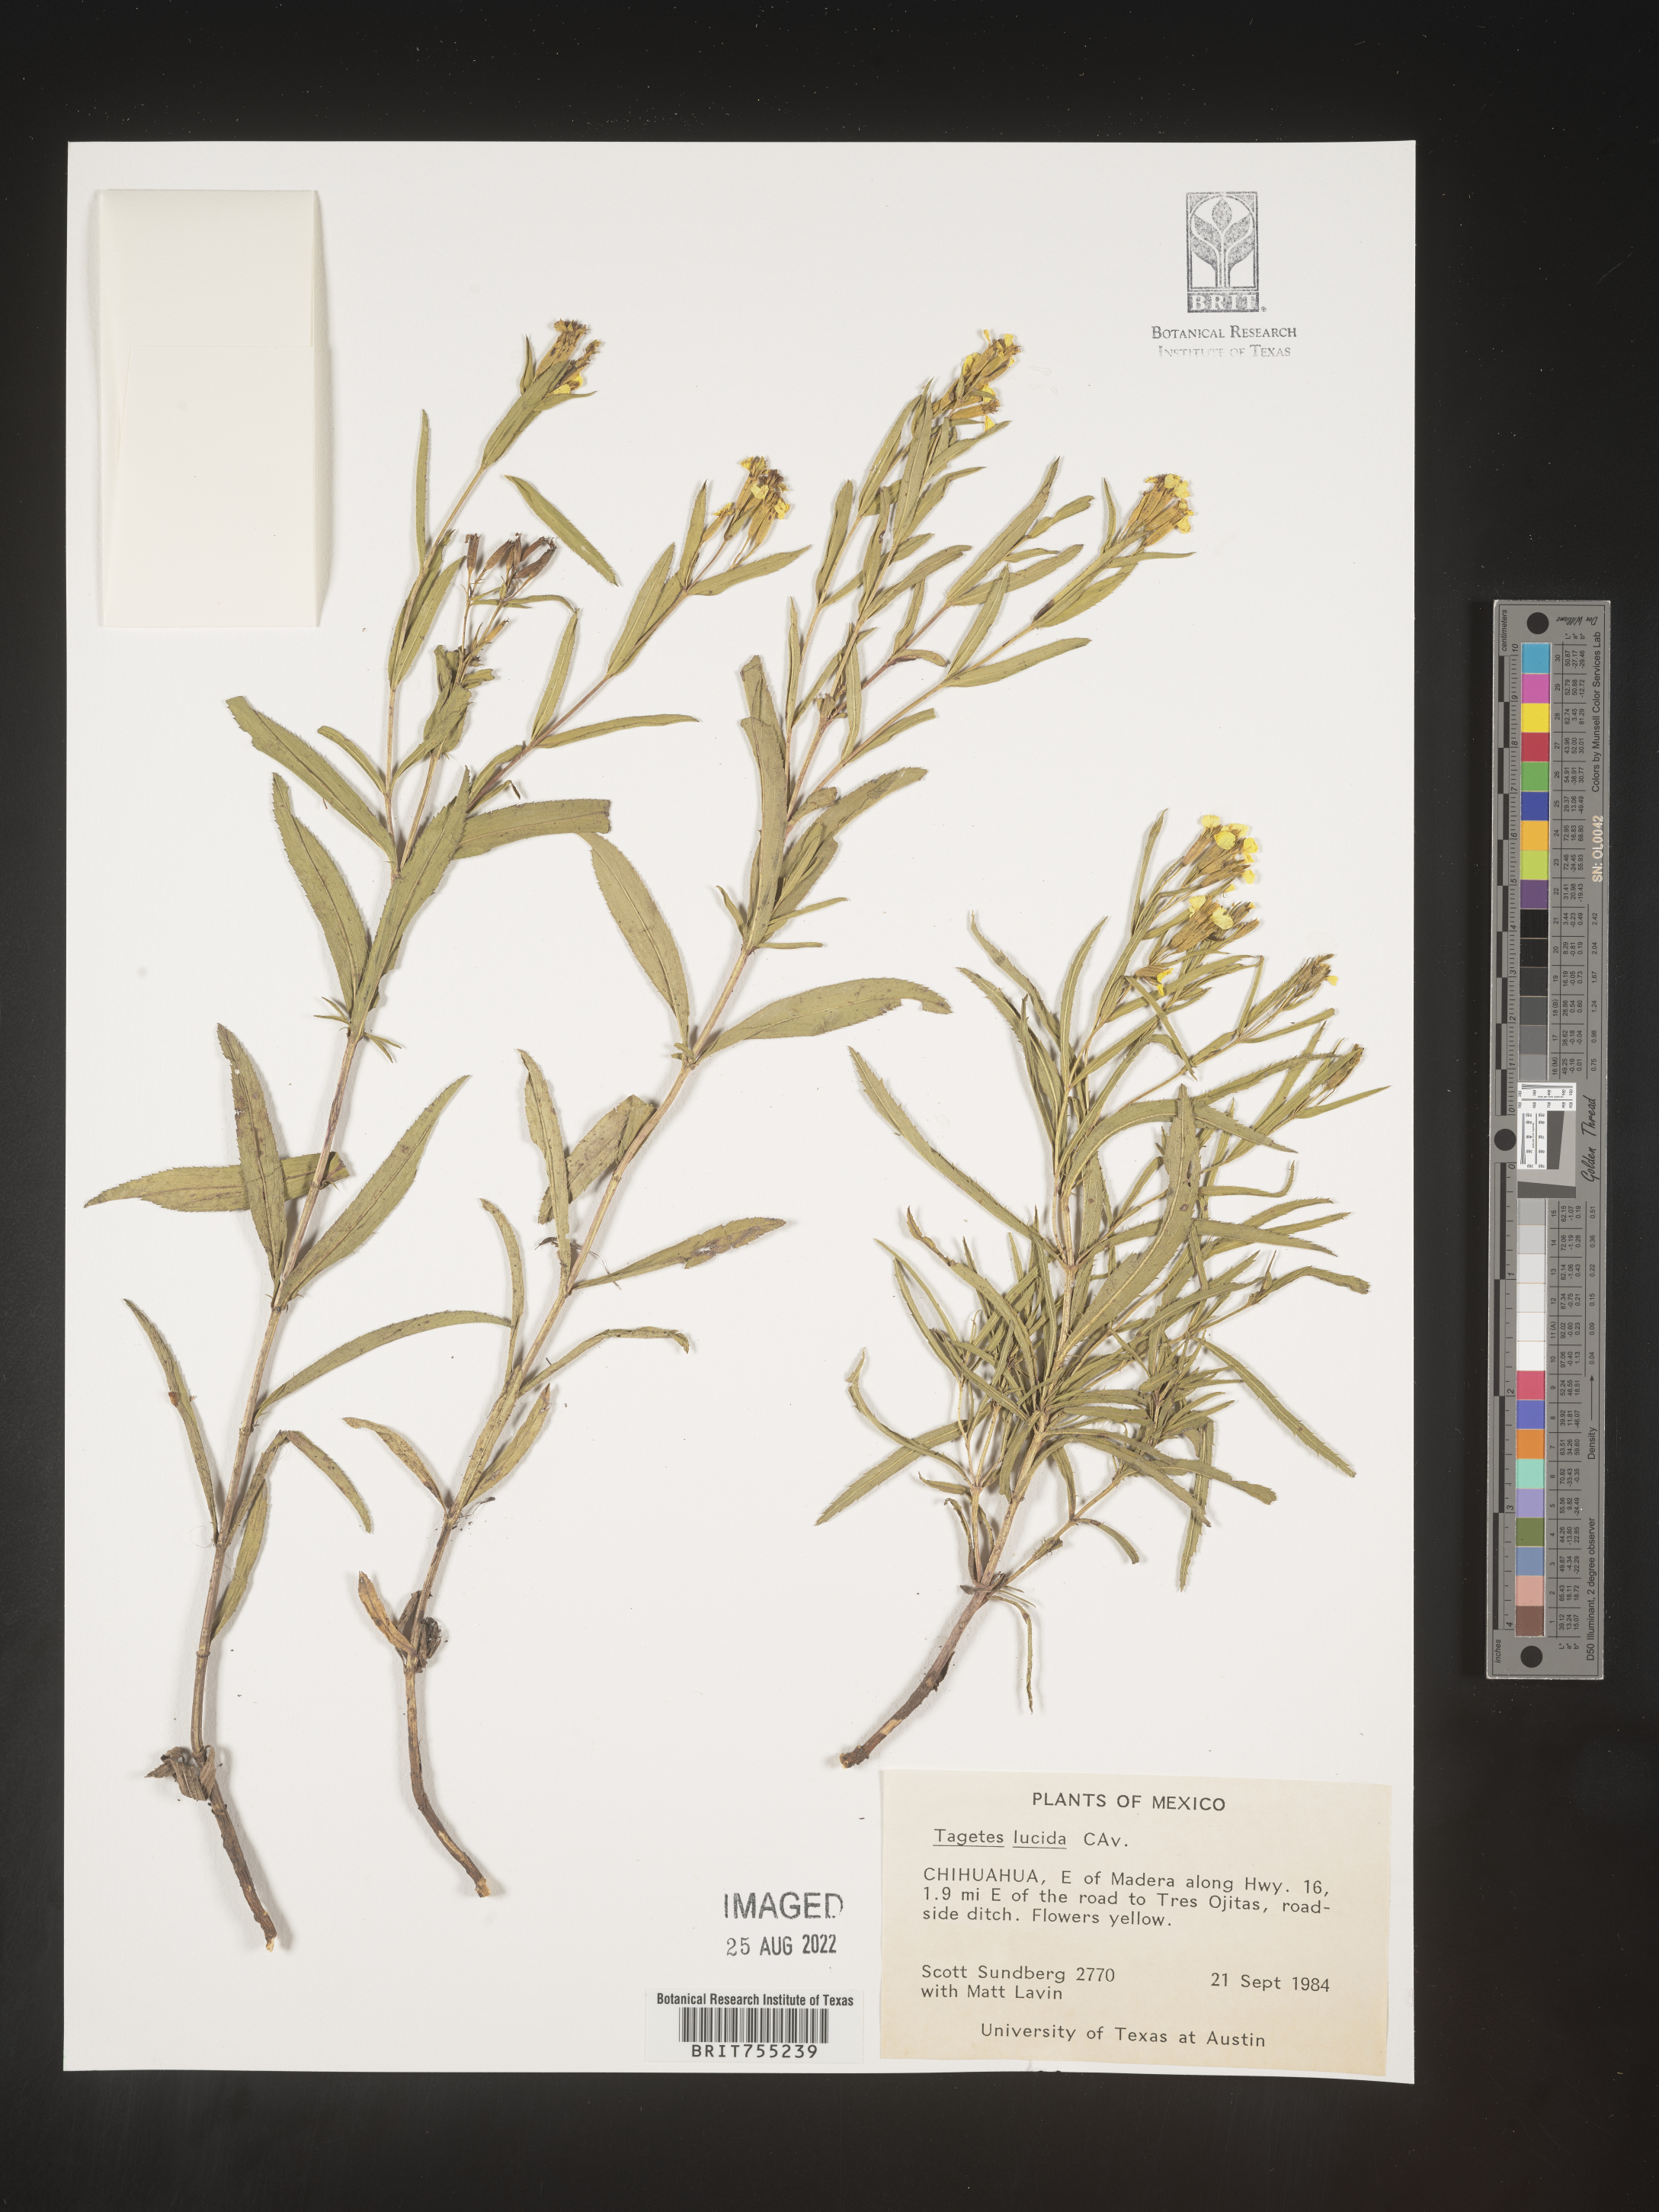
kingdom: Plantae
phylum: Tracheophyta
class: Magnoliopsida
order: Asterales
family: Asteraceae
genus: Tagetes
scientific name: Tagetes lucida
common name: Sweetscented marigold
